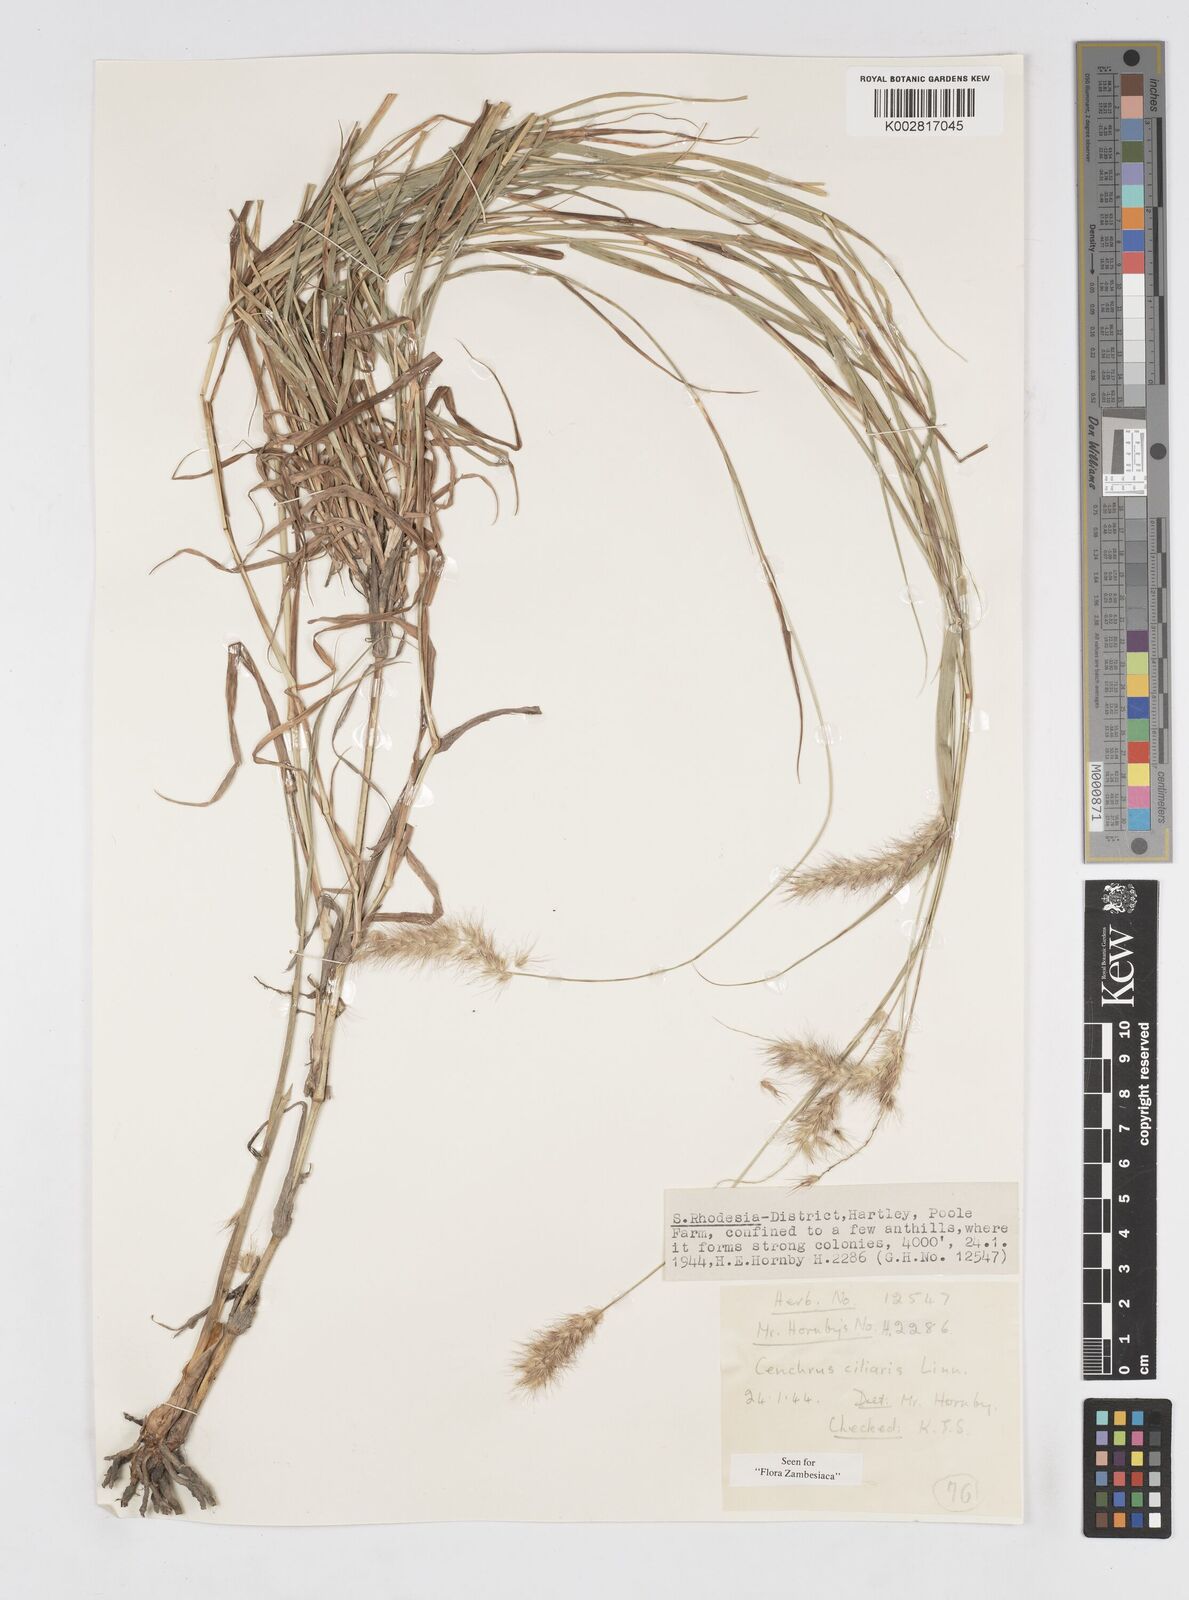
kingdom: Plantae
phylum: Tracheophyta
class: Liliopsida
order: Poales
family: Poaceae
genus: Cenchrus
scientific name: Cenchrus ciliaris
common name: Buffelgrass
